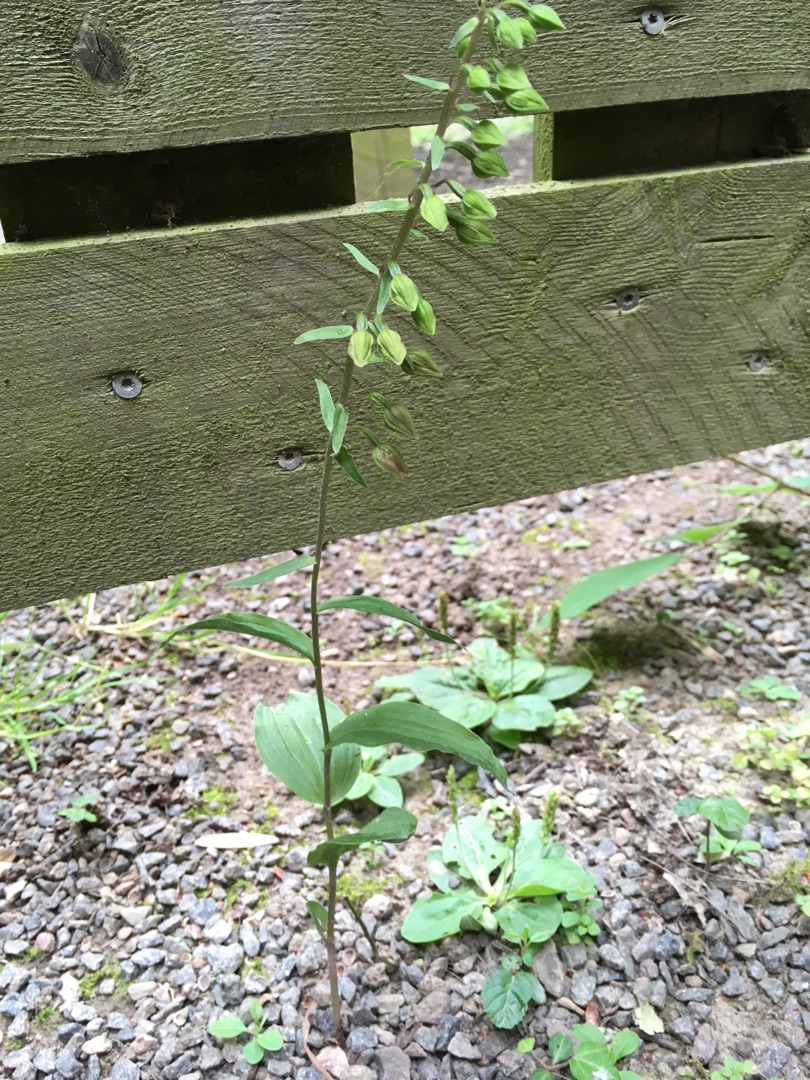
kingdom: Plantae
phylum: Tracheophyta
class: Liliopsida
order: Asparagales
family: Orchidaceae
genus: Epipactis
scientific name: Epipactis helleborine
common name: Skov-hullæbe
